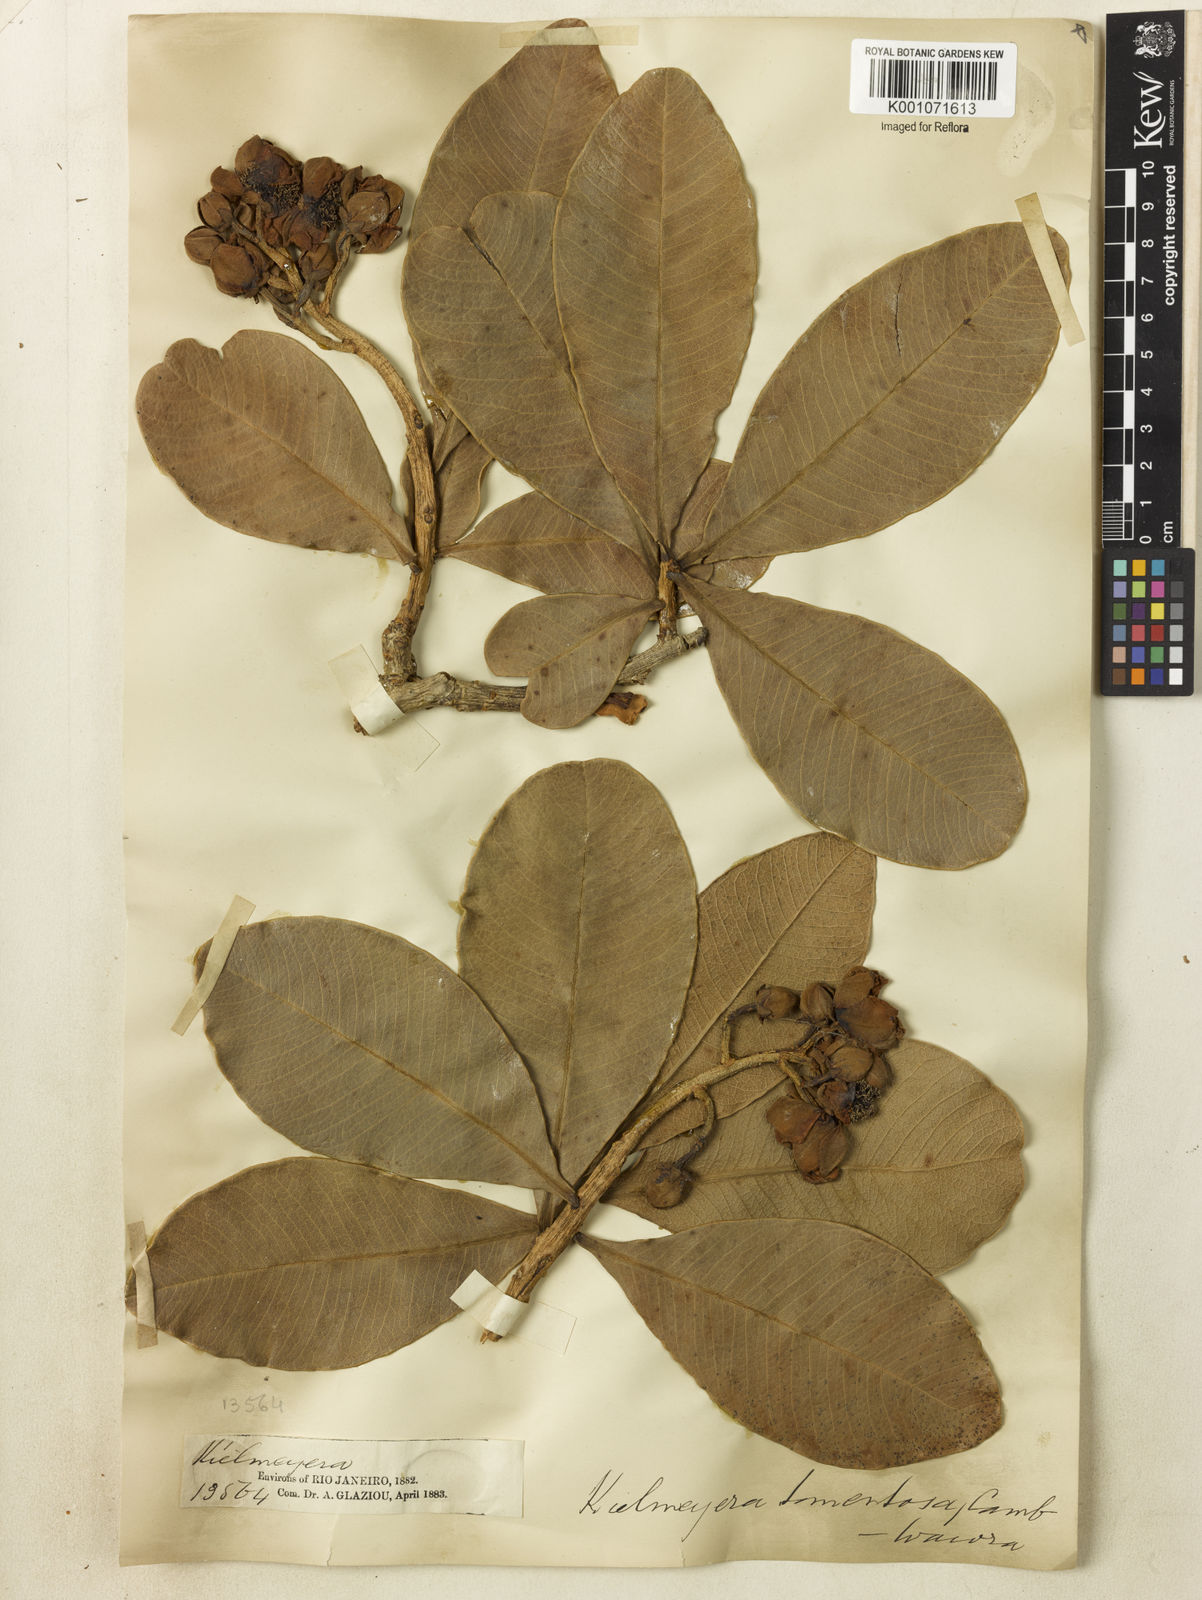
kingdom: Plantae
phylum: Tracheophyta
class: Magnoliopsida
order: Malpighiales
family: Calophyllaceae
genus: Kielmeyera
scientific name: Kielmeyera tomentosa
